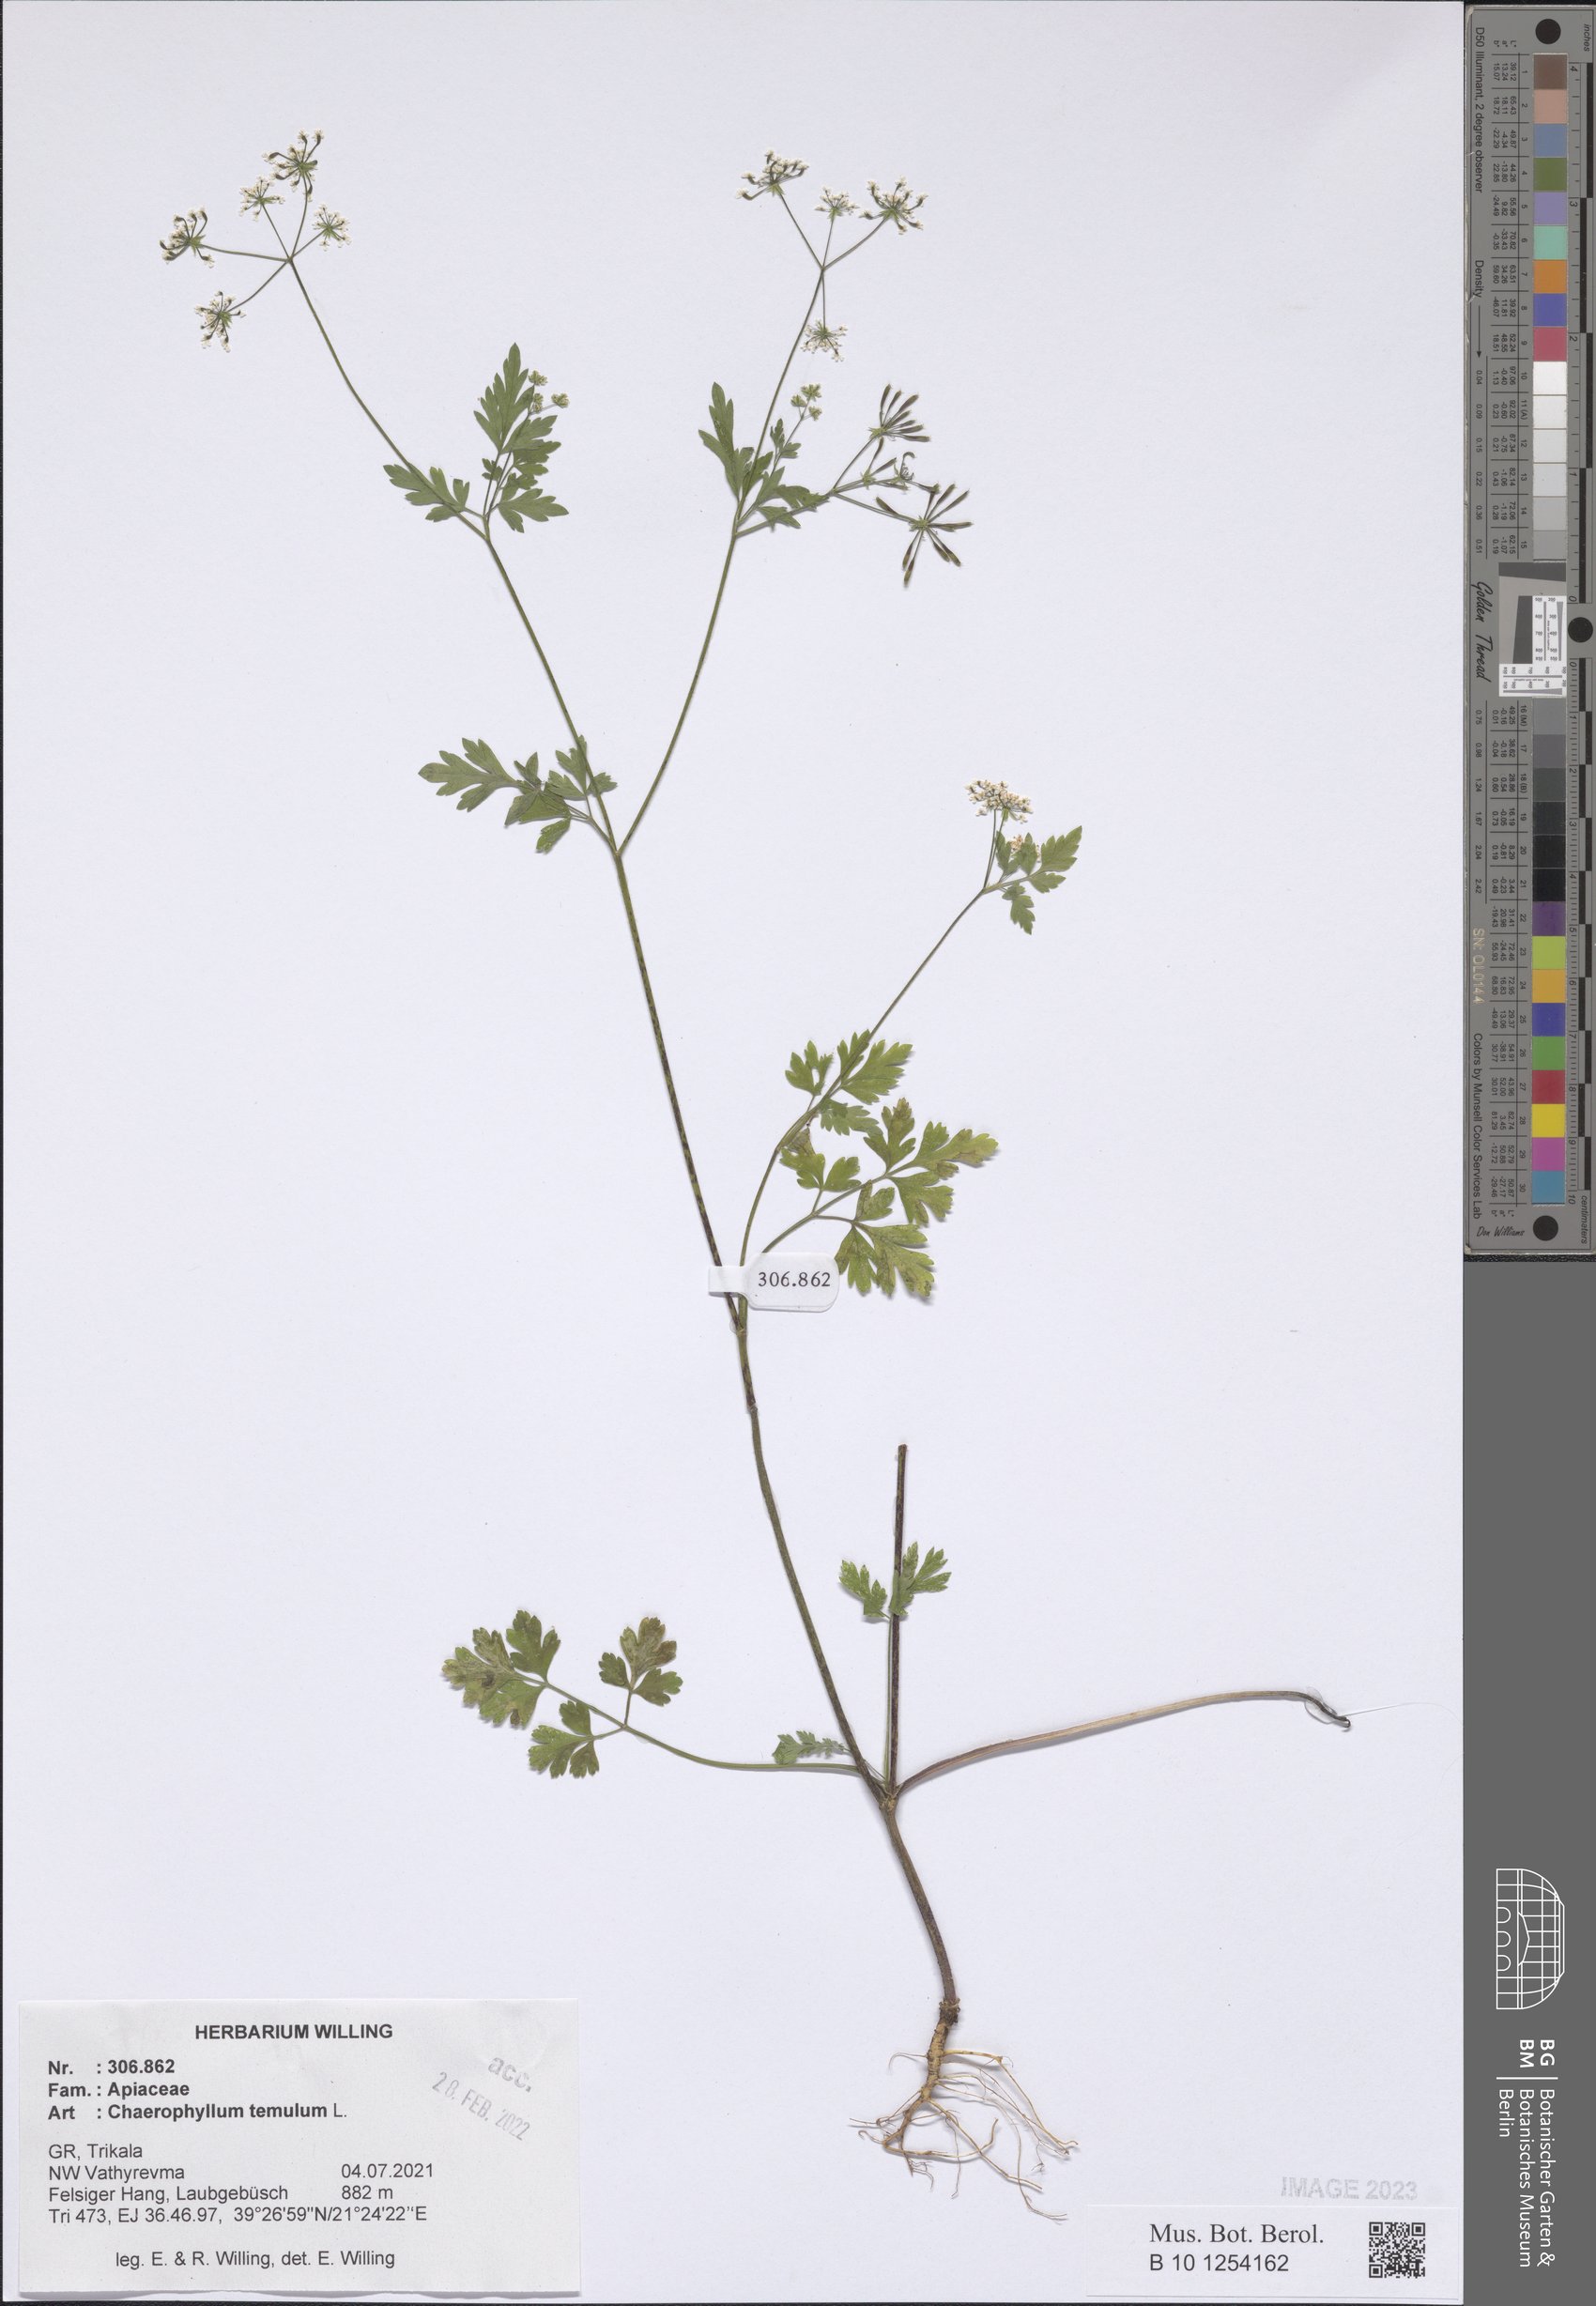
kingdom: Plantae
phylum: Tracheophyta
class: Magnoliopsida
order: Apiales
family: Apiaceae
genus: Chaerophyllum
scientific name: Chaerophyllum temulum
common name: Rough chervil
